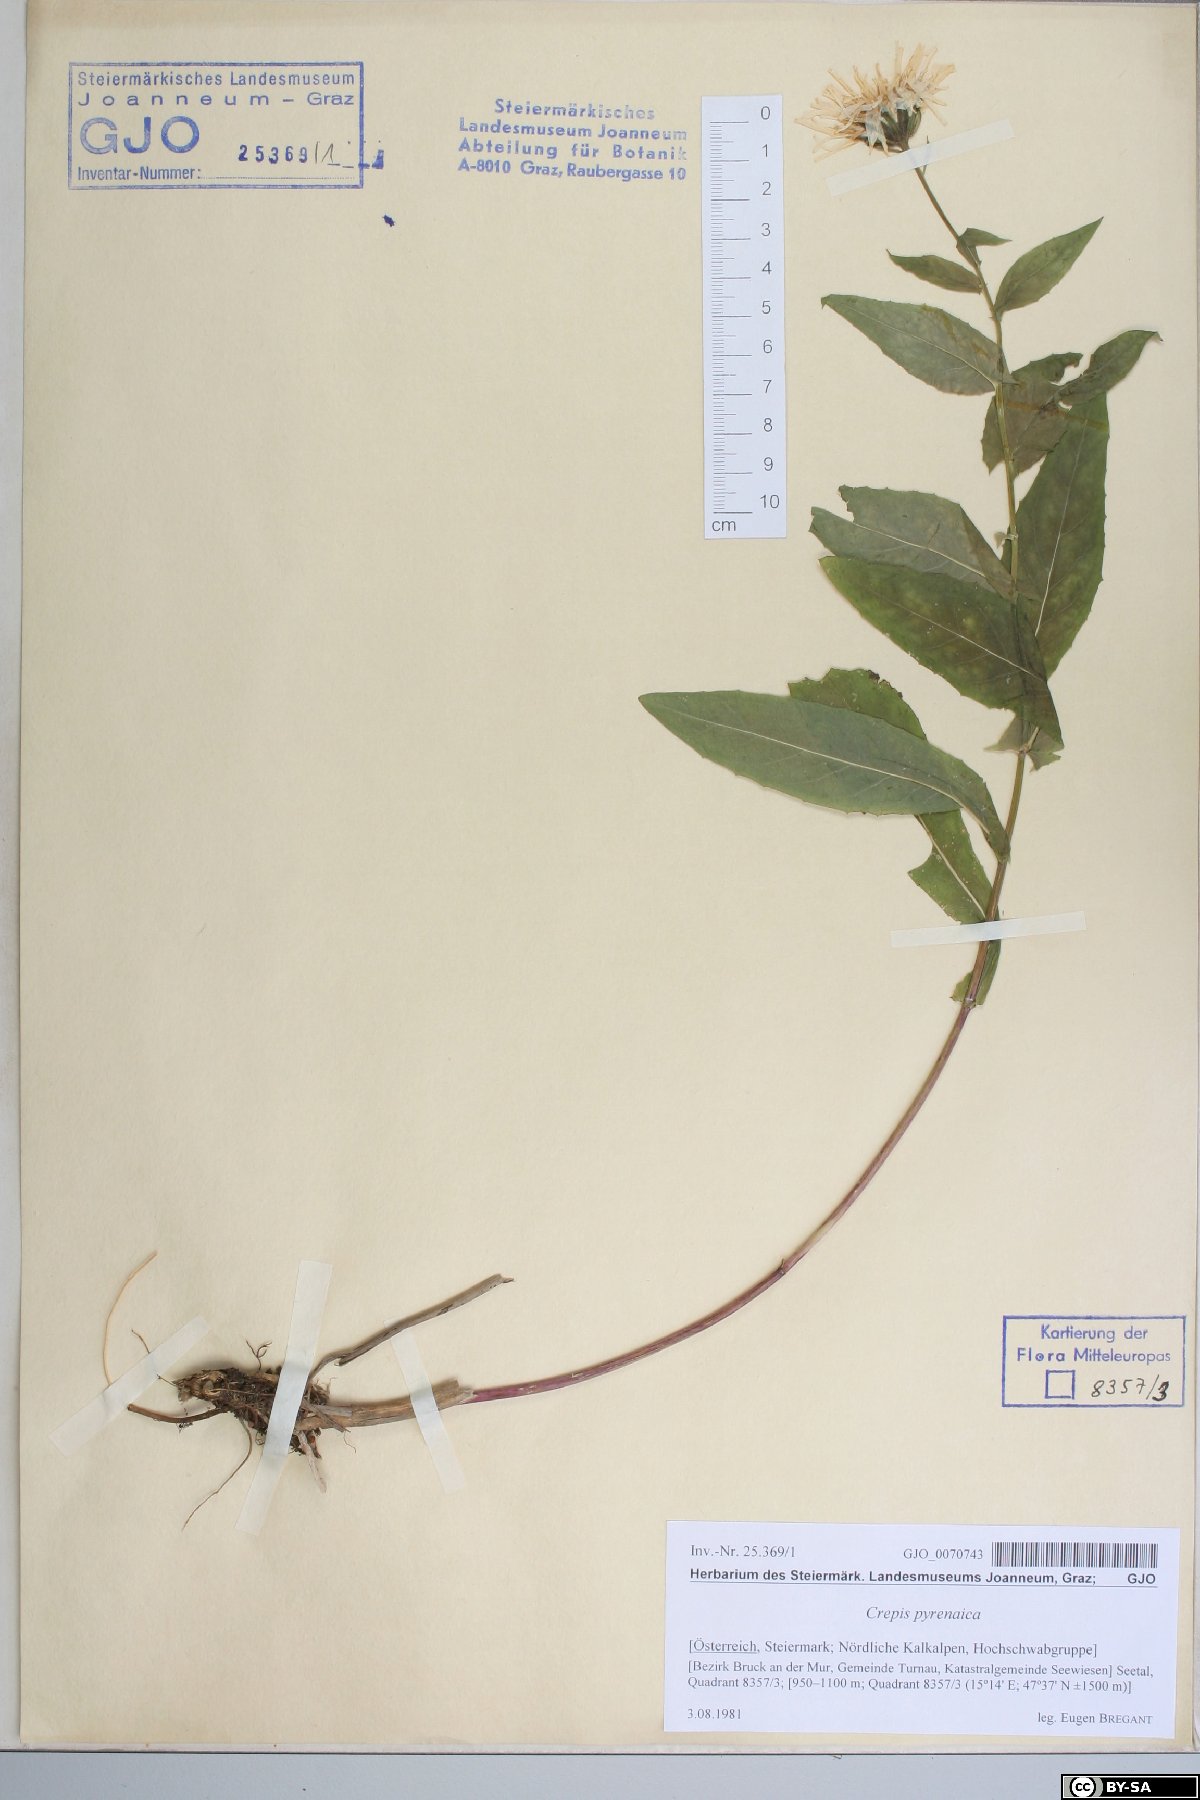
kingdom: Plantae
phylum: Tracheophyta
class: Magnoliopsida
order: Asterales
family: Asteraceae
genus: Crepis
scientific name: Crepis pyrenaica
